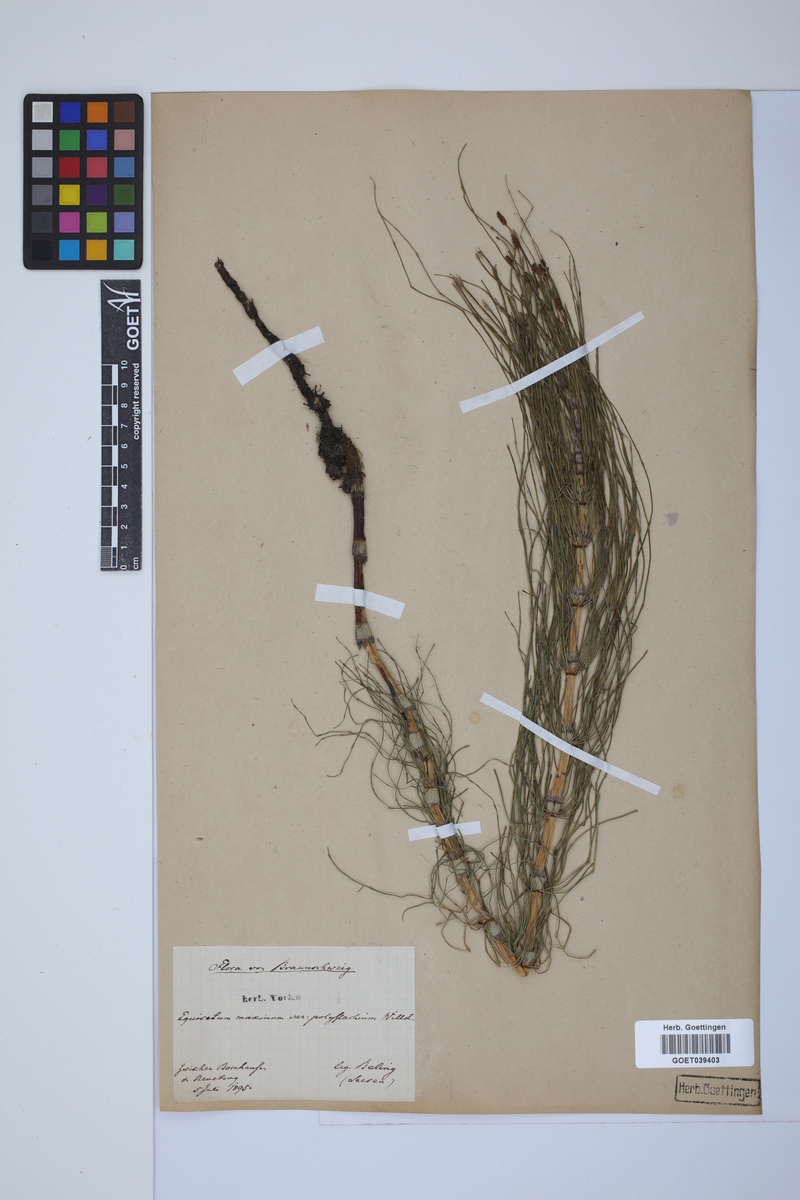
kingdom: Plantae
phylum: Tracheophyta
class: Polypodiopsida
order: Equisetales
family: Equisetaceae
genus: Equisetum
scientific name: Equisetum telmateia
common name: Great horsetail
